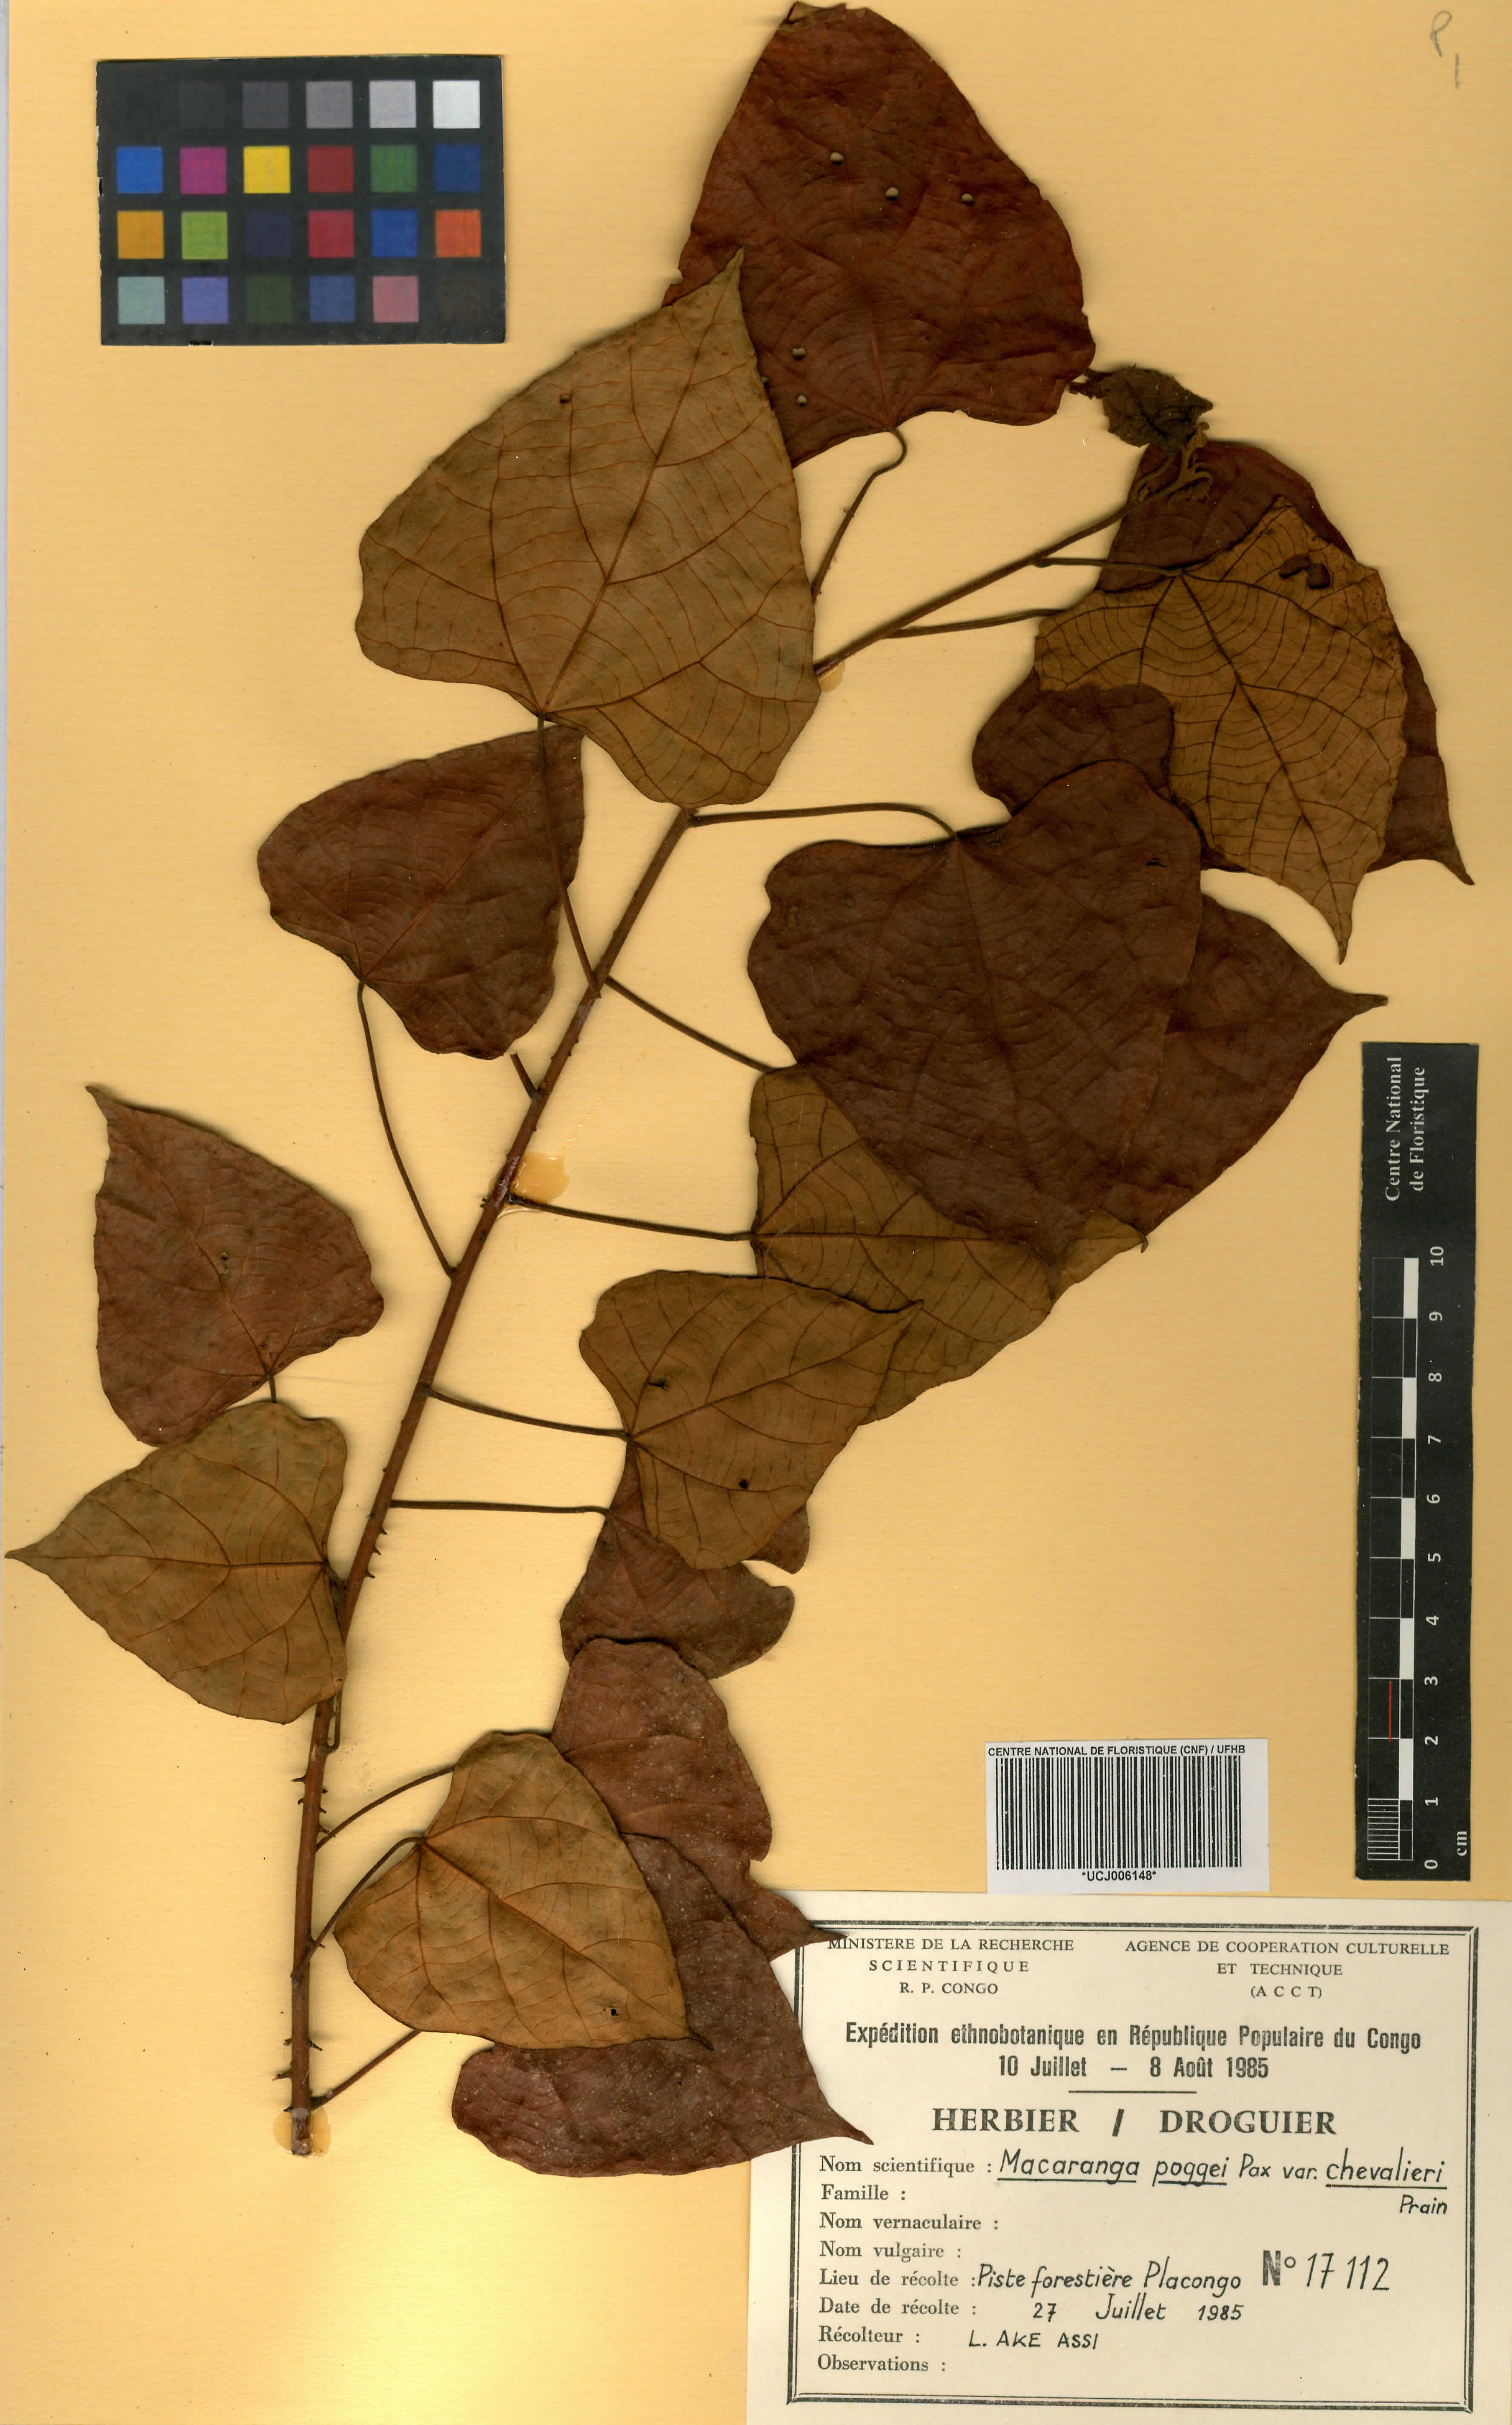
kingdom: Plantae
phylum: Tracheophyta
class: Magnoliopsida
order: Malpighiales
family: Euphorbiaceae
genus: Macaranga
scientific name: Macaranga poggei
